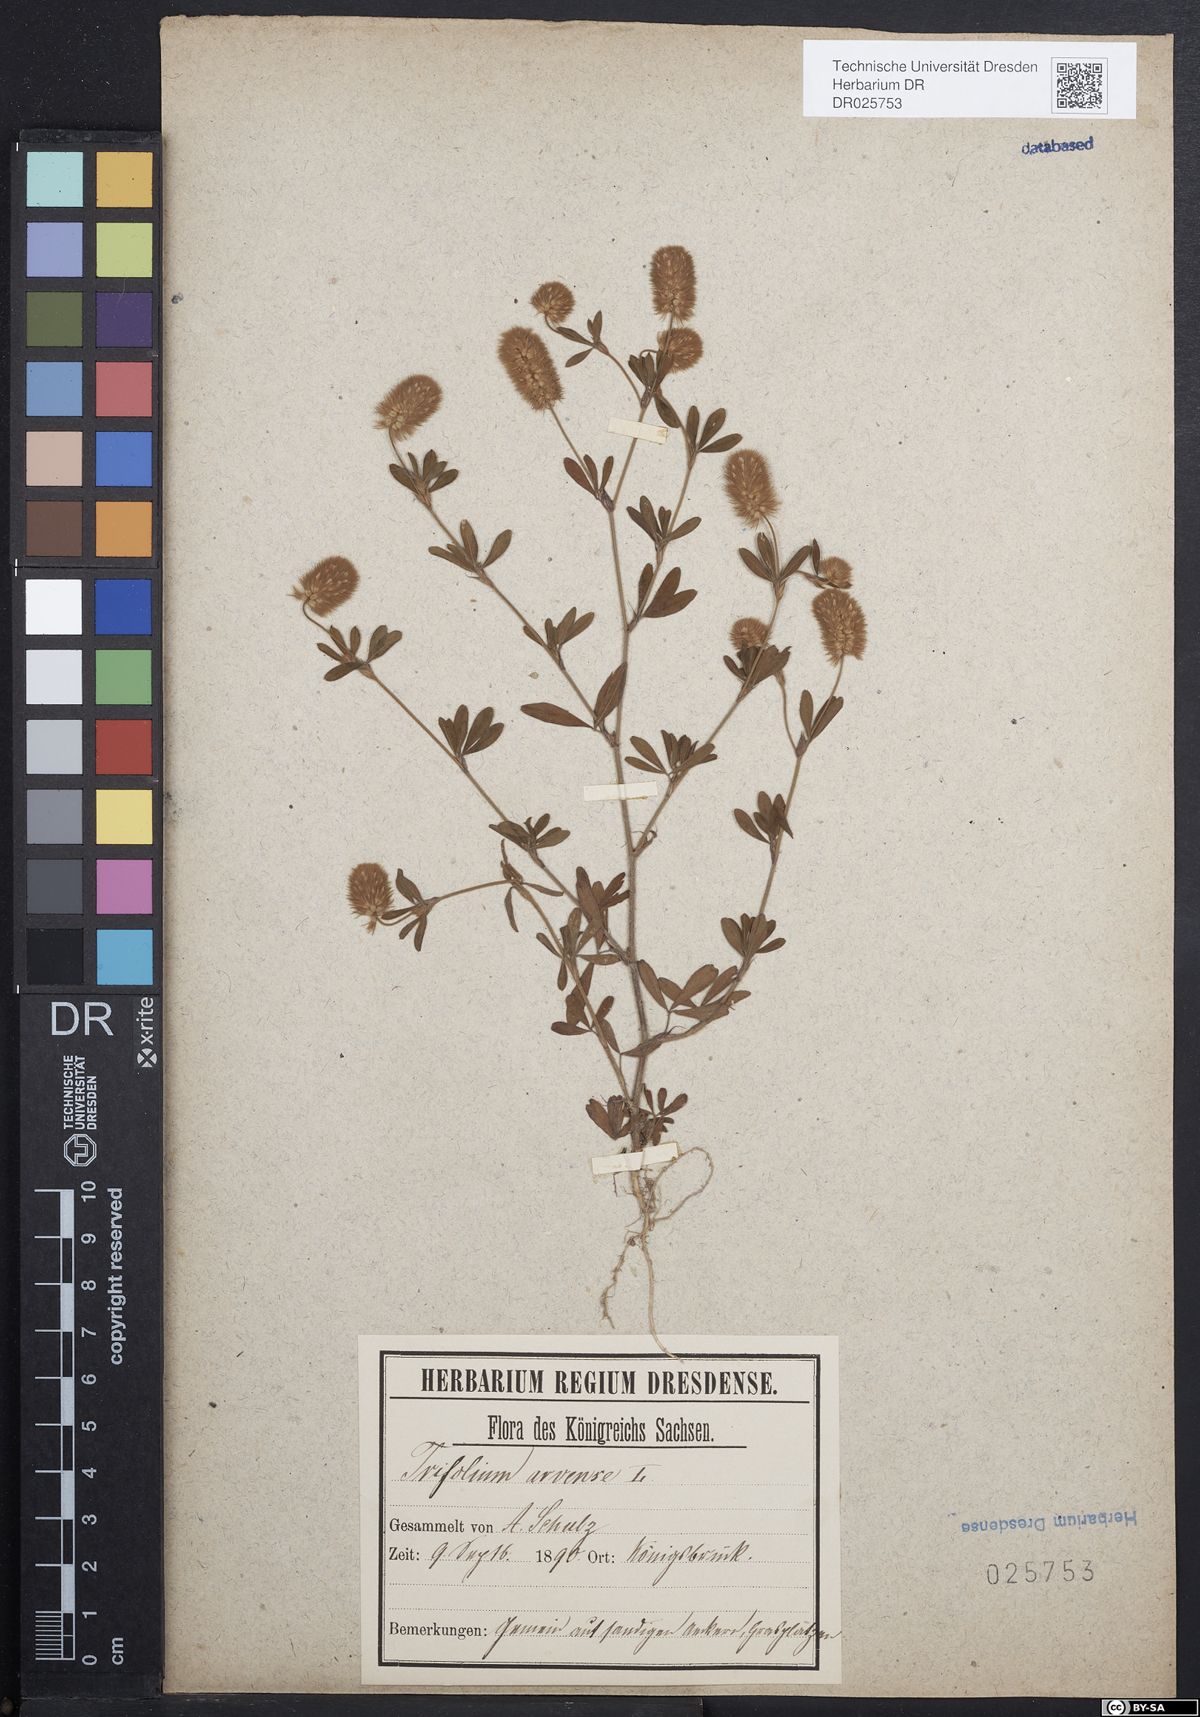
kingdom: Plantae
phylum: Tracheophyta
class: Magnoliopsida
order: Fabales
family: Fabaceae
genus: Trifolium
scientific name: Trifolium arvense
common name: Hare's-foot clover
